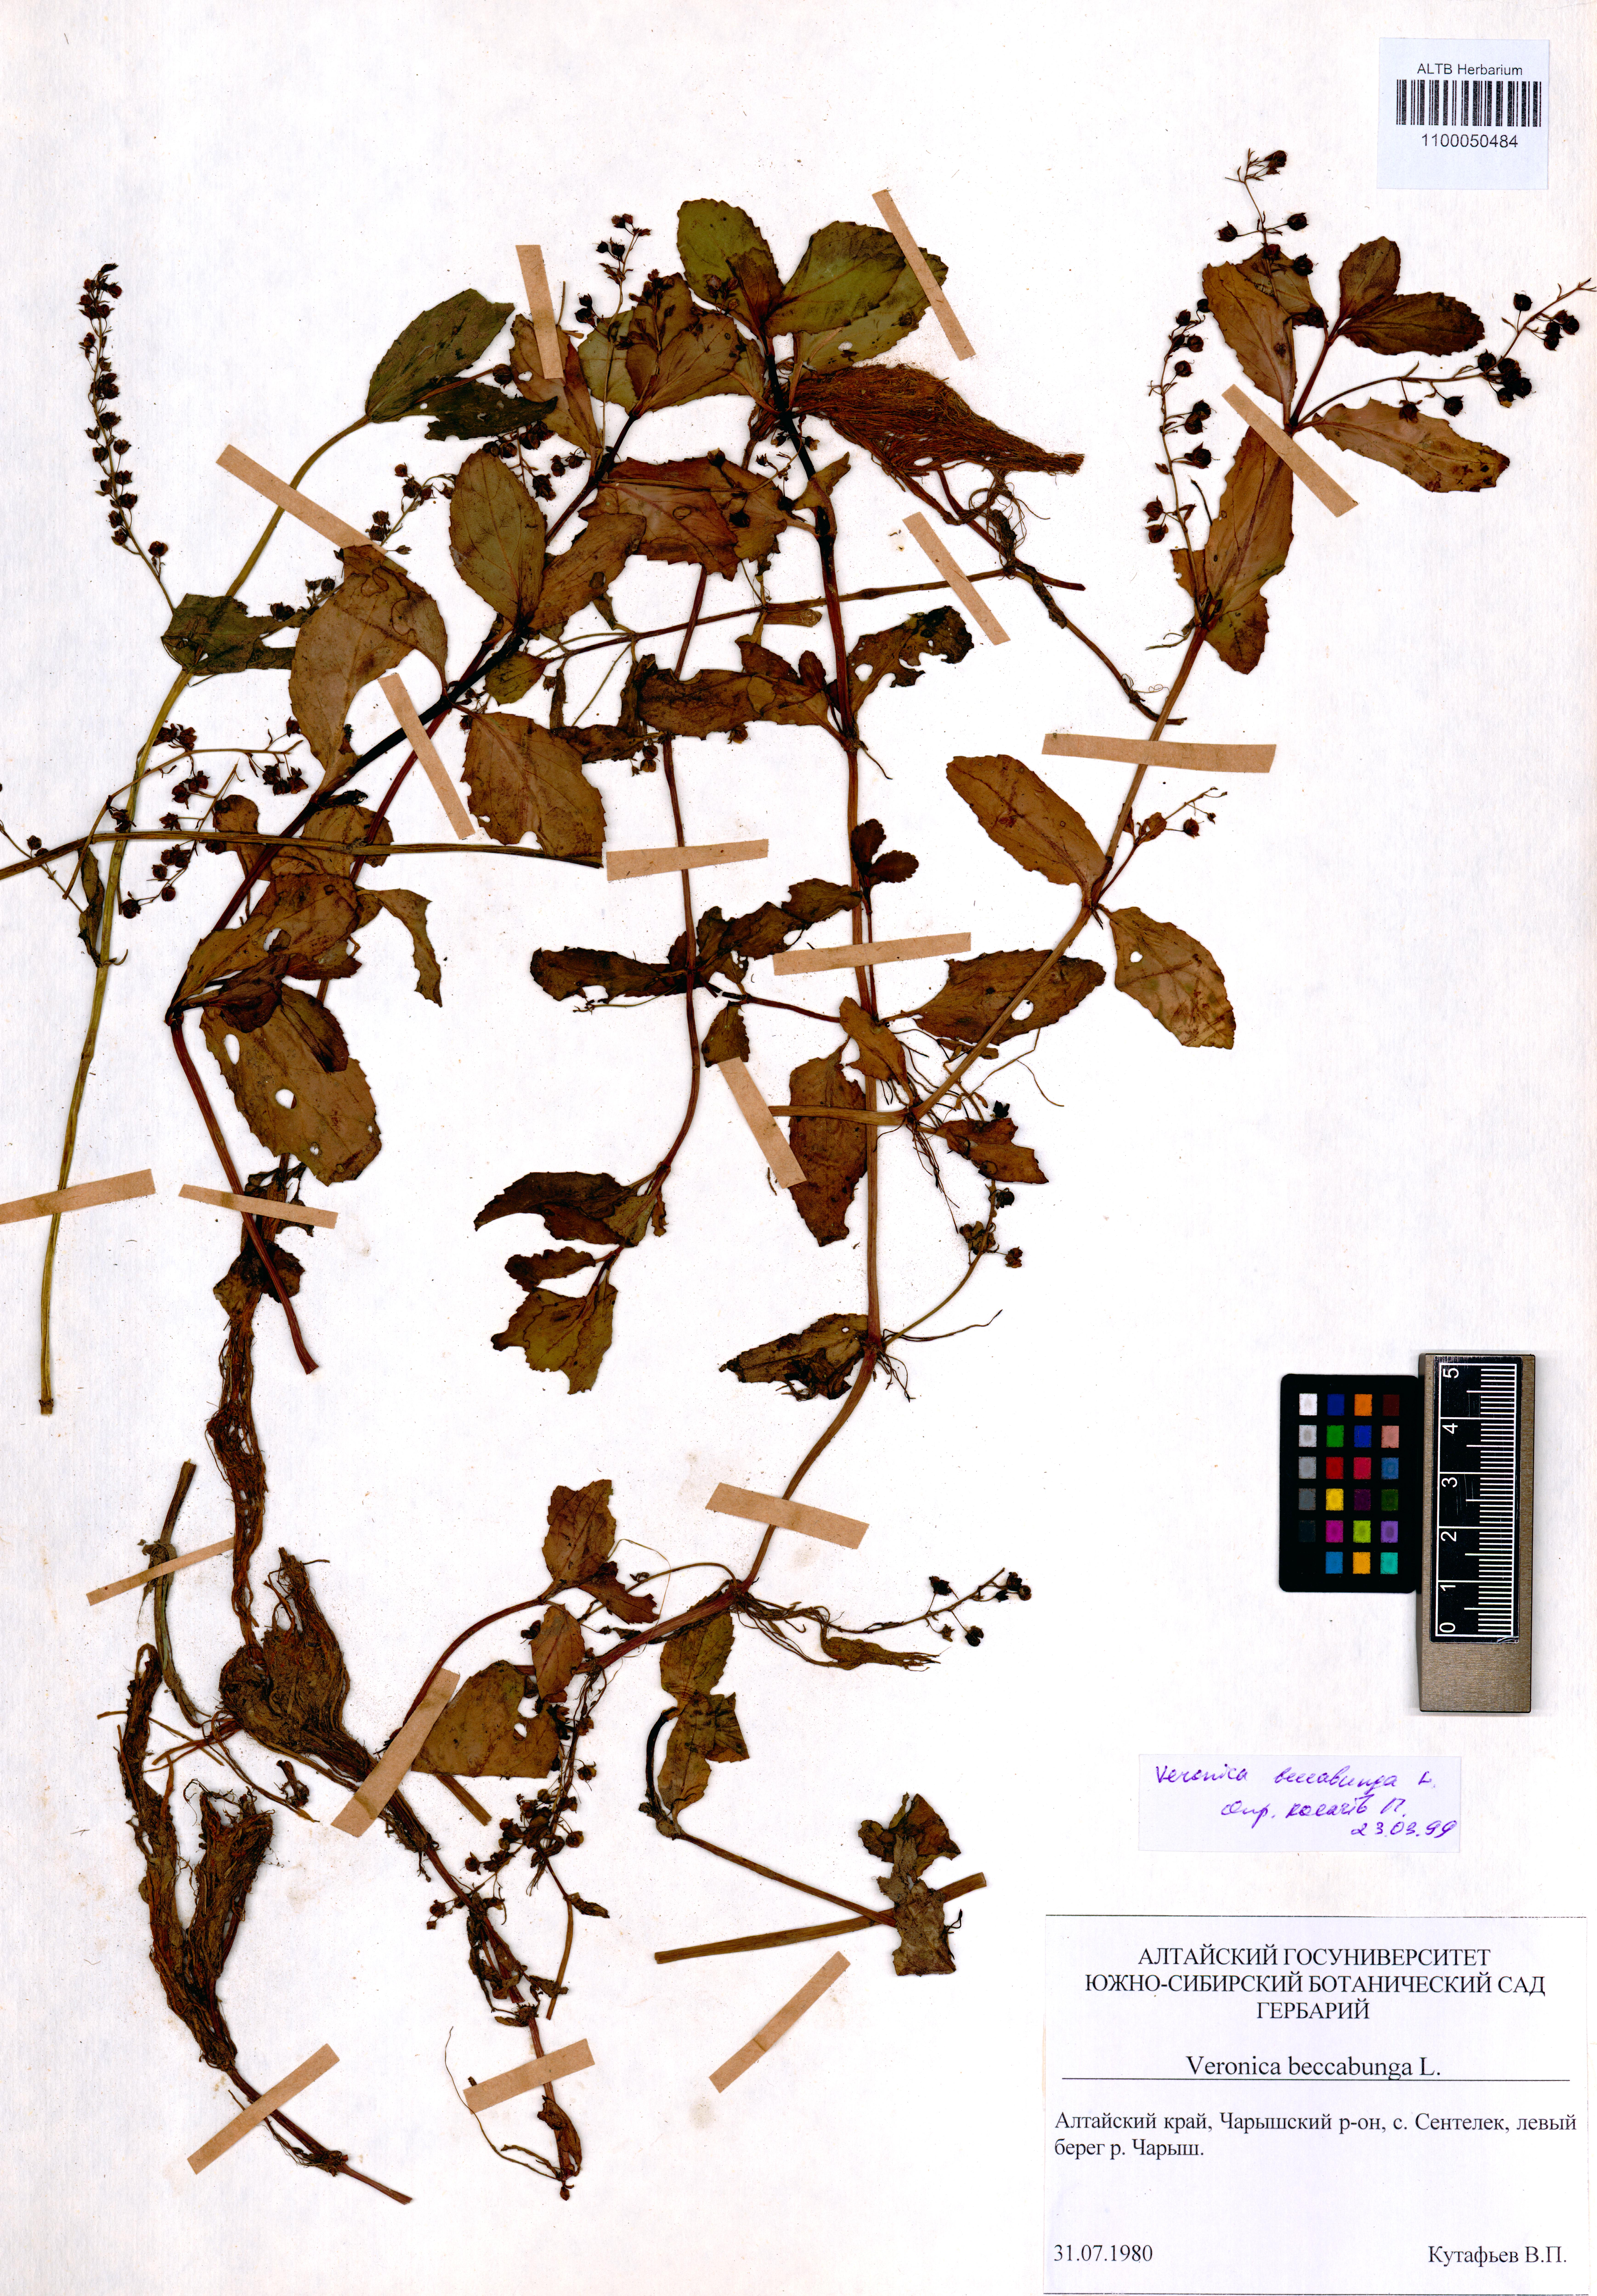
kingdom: Plantae
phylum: Tracheophyta
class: Magnoliopsida
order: Lamiales
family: Plantaginaceae
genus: Veronica
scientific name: Veronica beccabunga
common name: Brooklime
